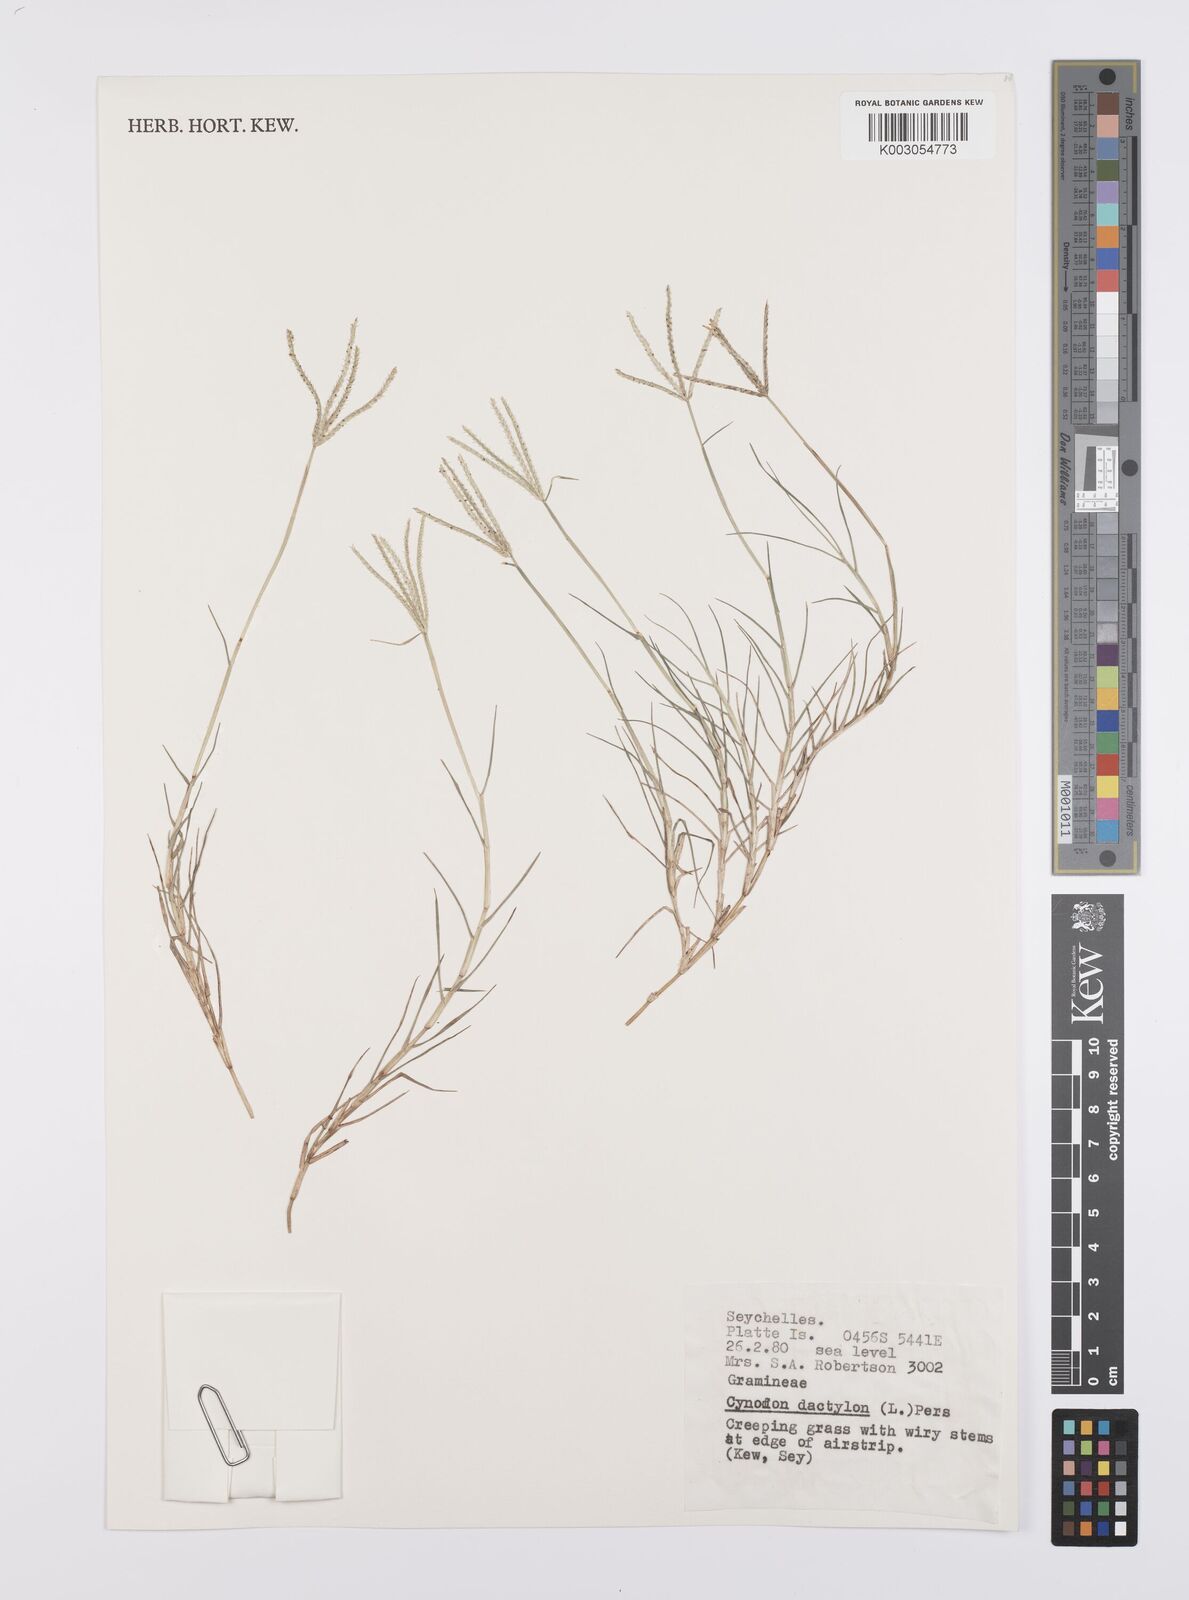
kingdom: Plantae
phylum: Tracheophyta
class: Liliopsida
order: Poales
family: Poaceae
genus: Cynodon
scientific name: Cynodon dactylon
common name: Bermuda grass
